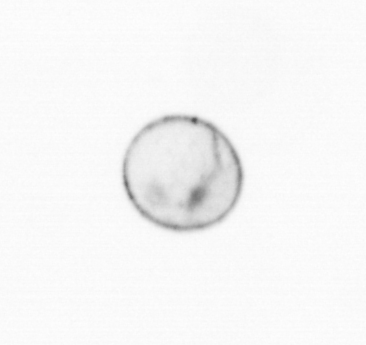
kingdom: Chromista
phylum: Myzozoa
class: Dinophyceae
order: Noctilucales
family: Noctilucaceae
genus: Noctiluca
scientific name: Noctiluca scintillans
